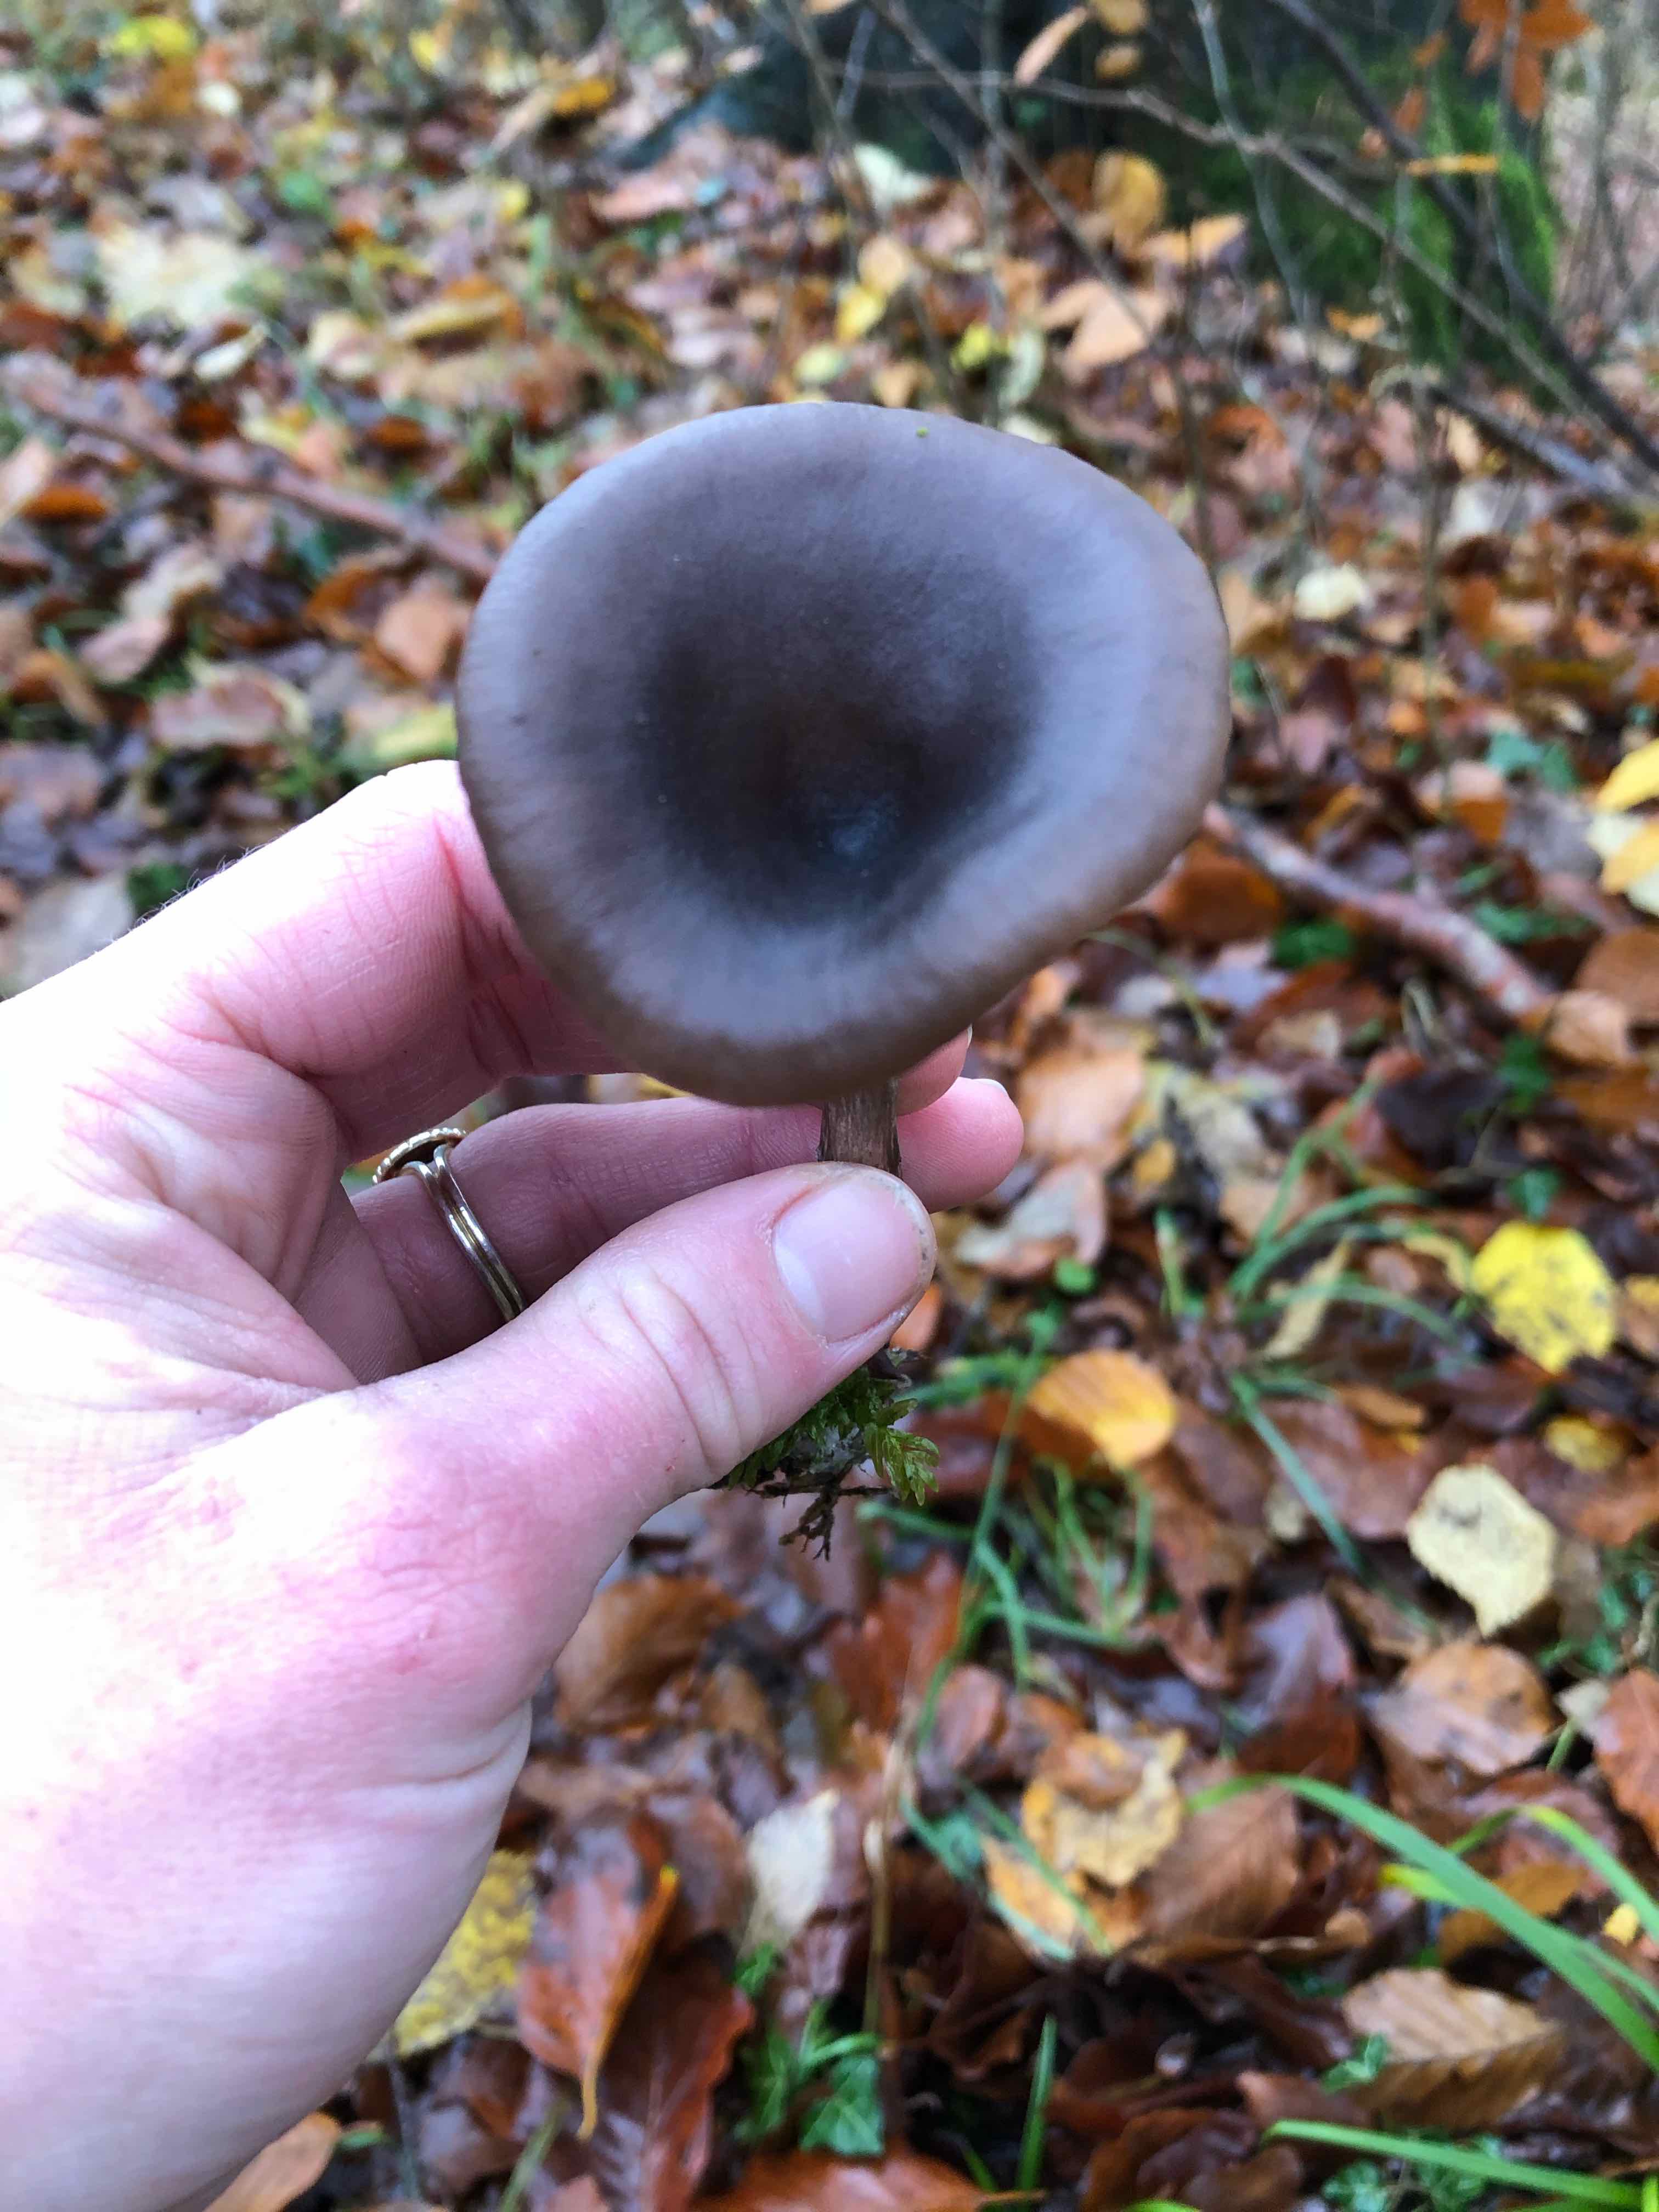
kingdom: Fungi
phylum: Basidiomycota
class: Agaricomycetes
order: Agaricales
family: Pseudoclitocybaceae
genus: Pseudoclitocybe
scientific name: Pseudoclitocybe cyathiformis
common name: almindelig bægertragthat
